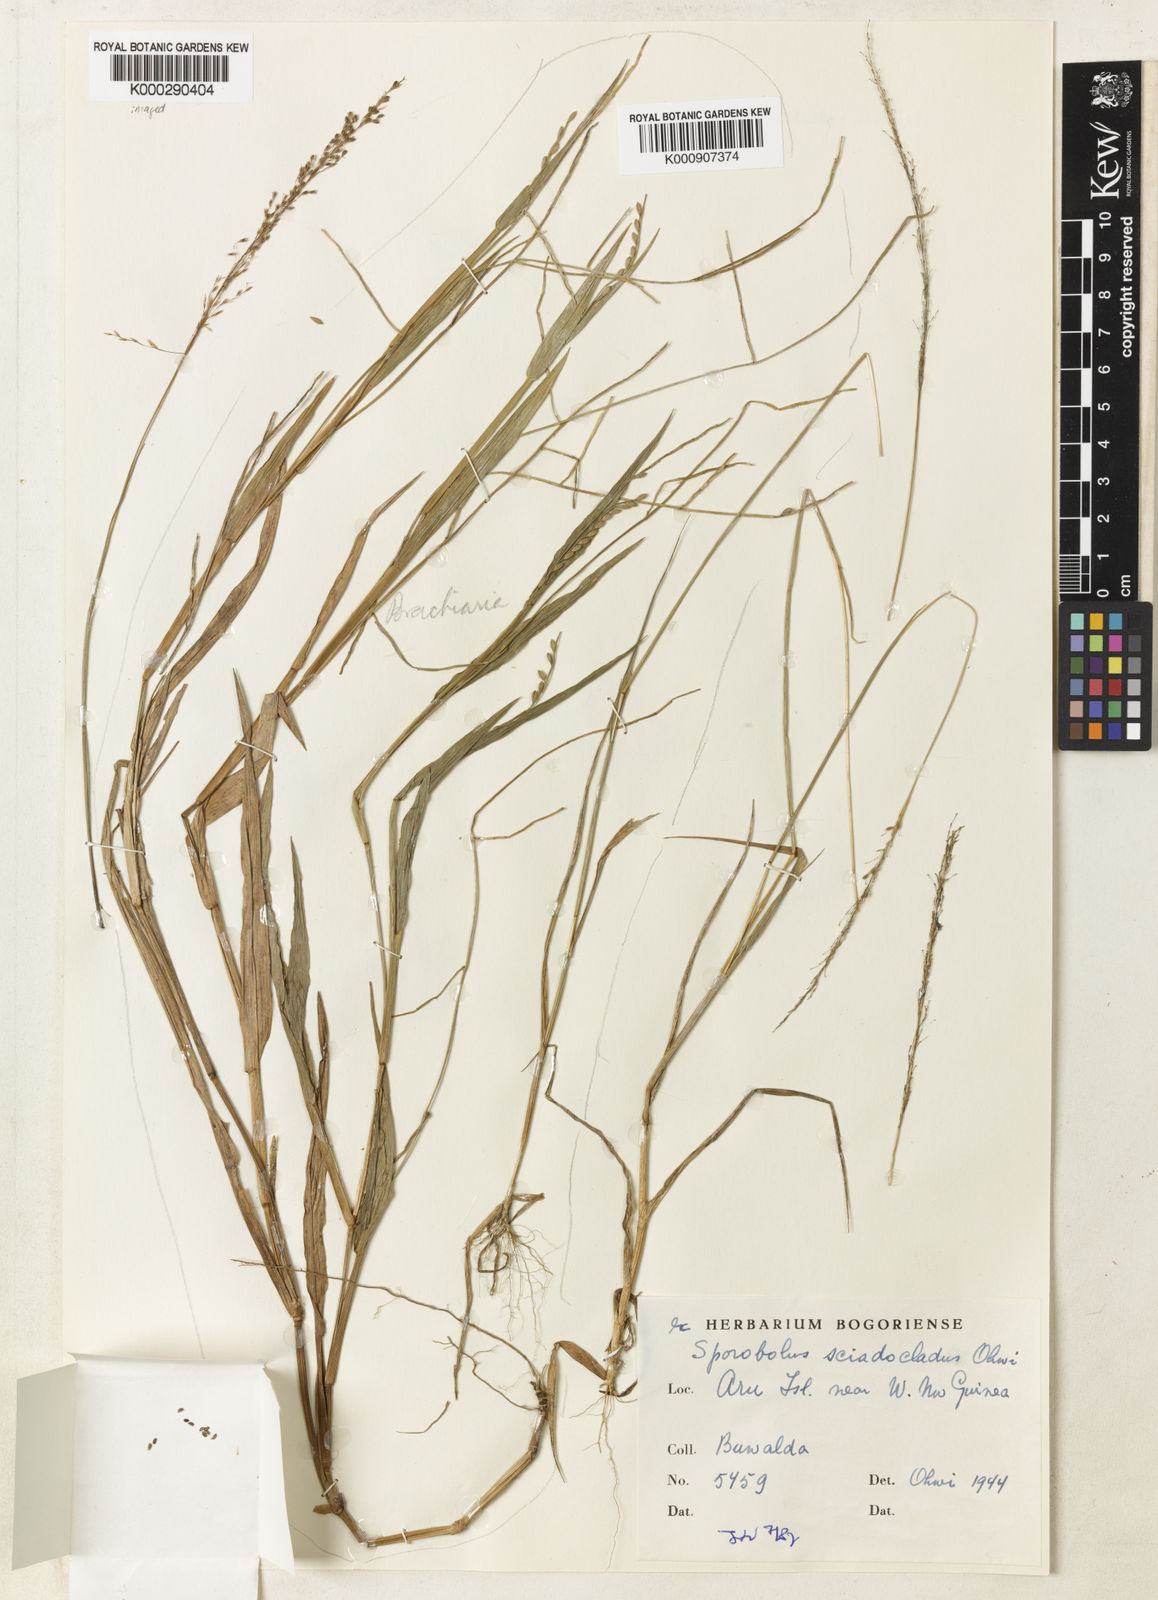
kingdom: Plantae
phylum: Tracheophyta
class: Liliopsida
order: Poales
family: Poaceae
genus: Sporobolus
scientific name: Sporobolus sciadocladus
